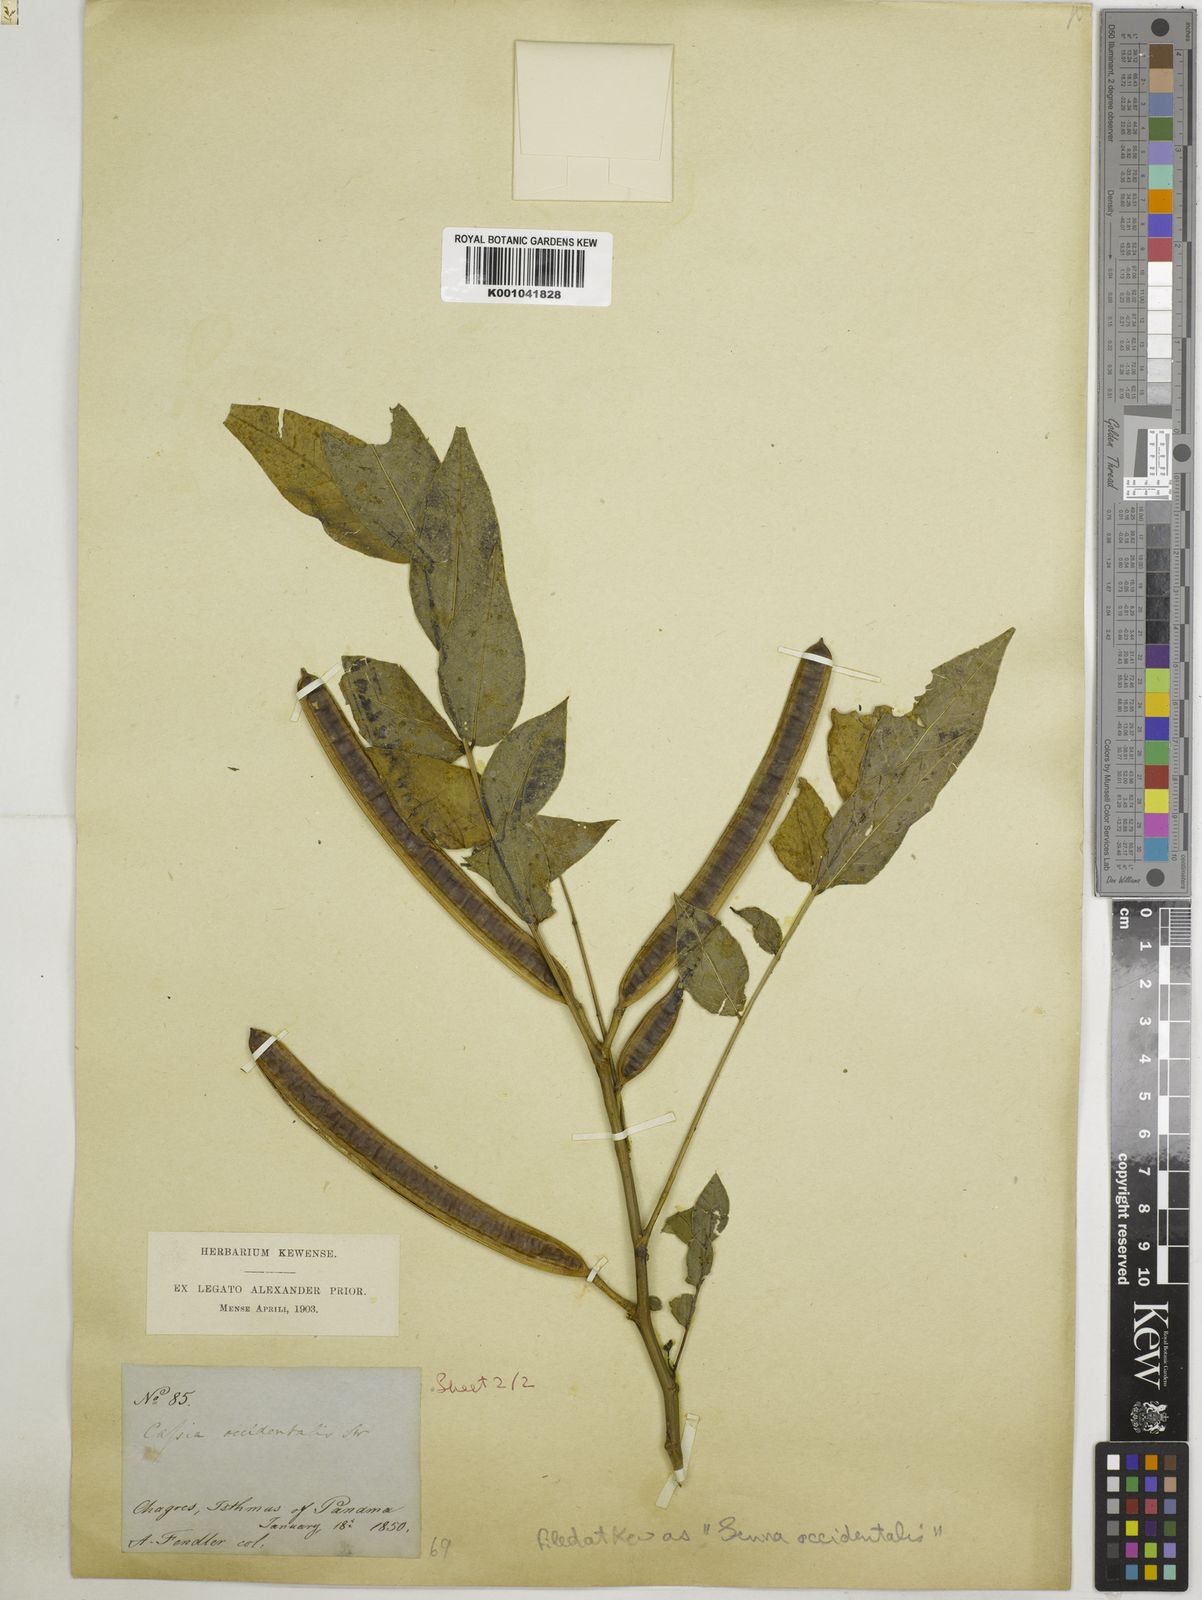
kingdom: Plantae
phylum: Tracheophyta
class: Magnoliopsida
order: Fabales
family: Fabaceae
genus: Senna
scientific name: Senna occidentalis
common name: Septicweed
